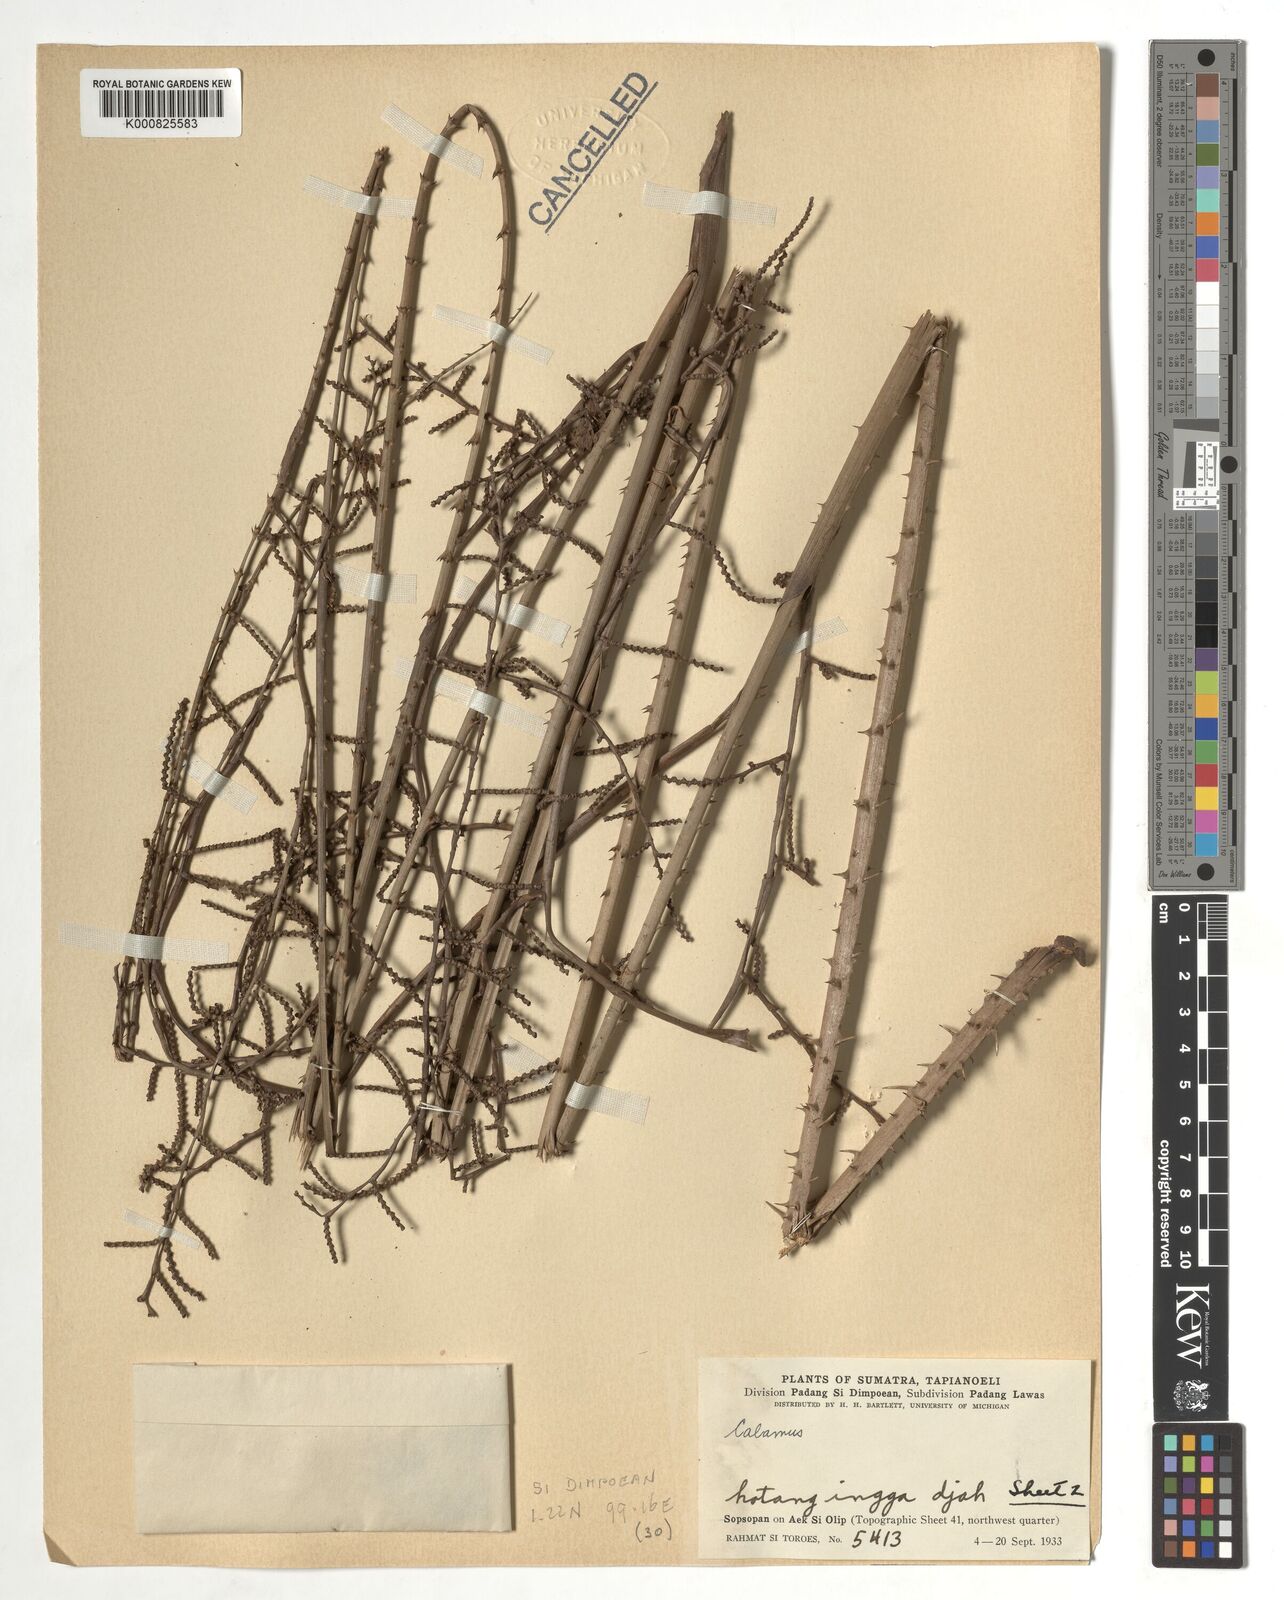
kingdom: Plantae
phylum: Tracheophyta
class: Liliopsida
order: Arecales
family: Arecaceae
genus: Calamus
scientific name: Calamus
